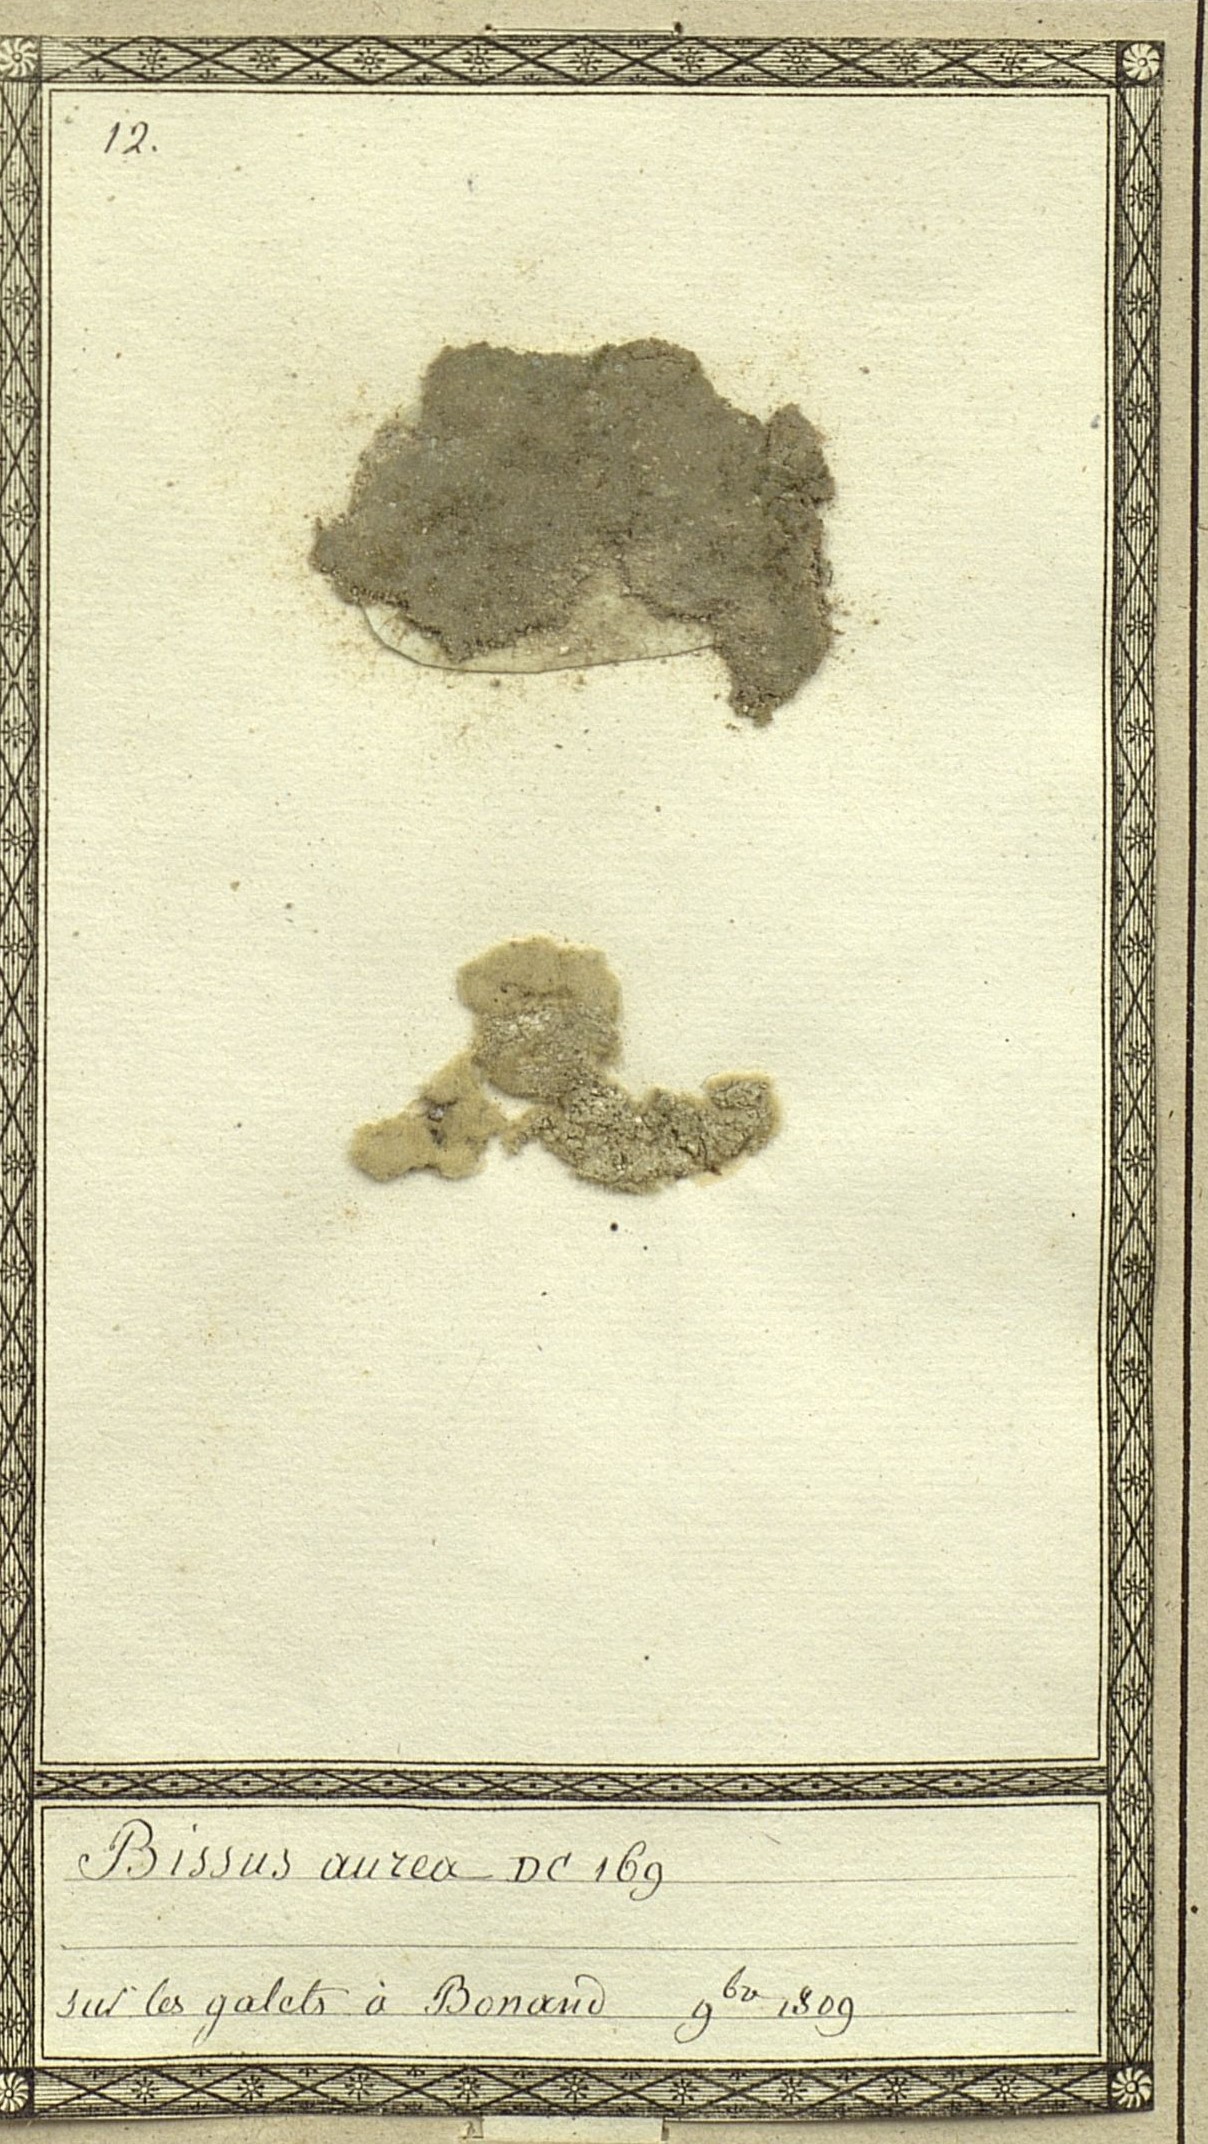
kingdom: Fungi
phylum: Ascomycota
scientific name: Ascomycota
